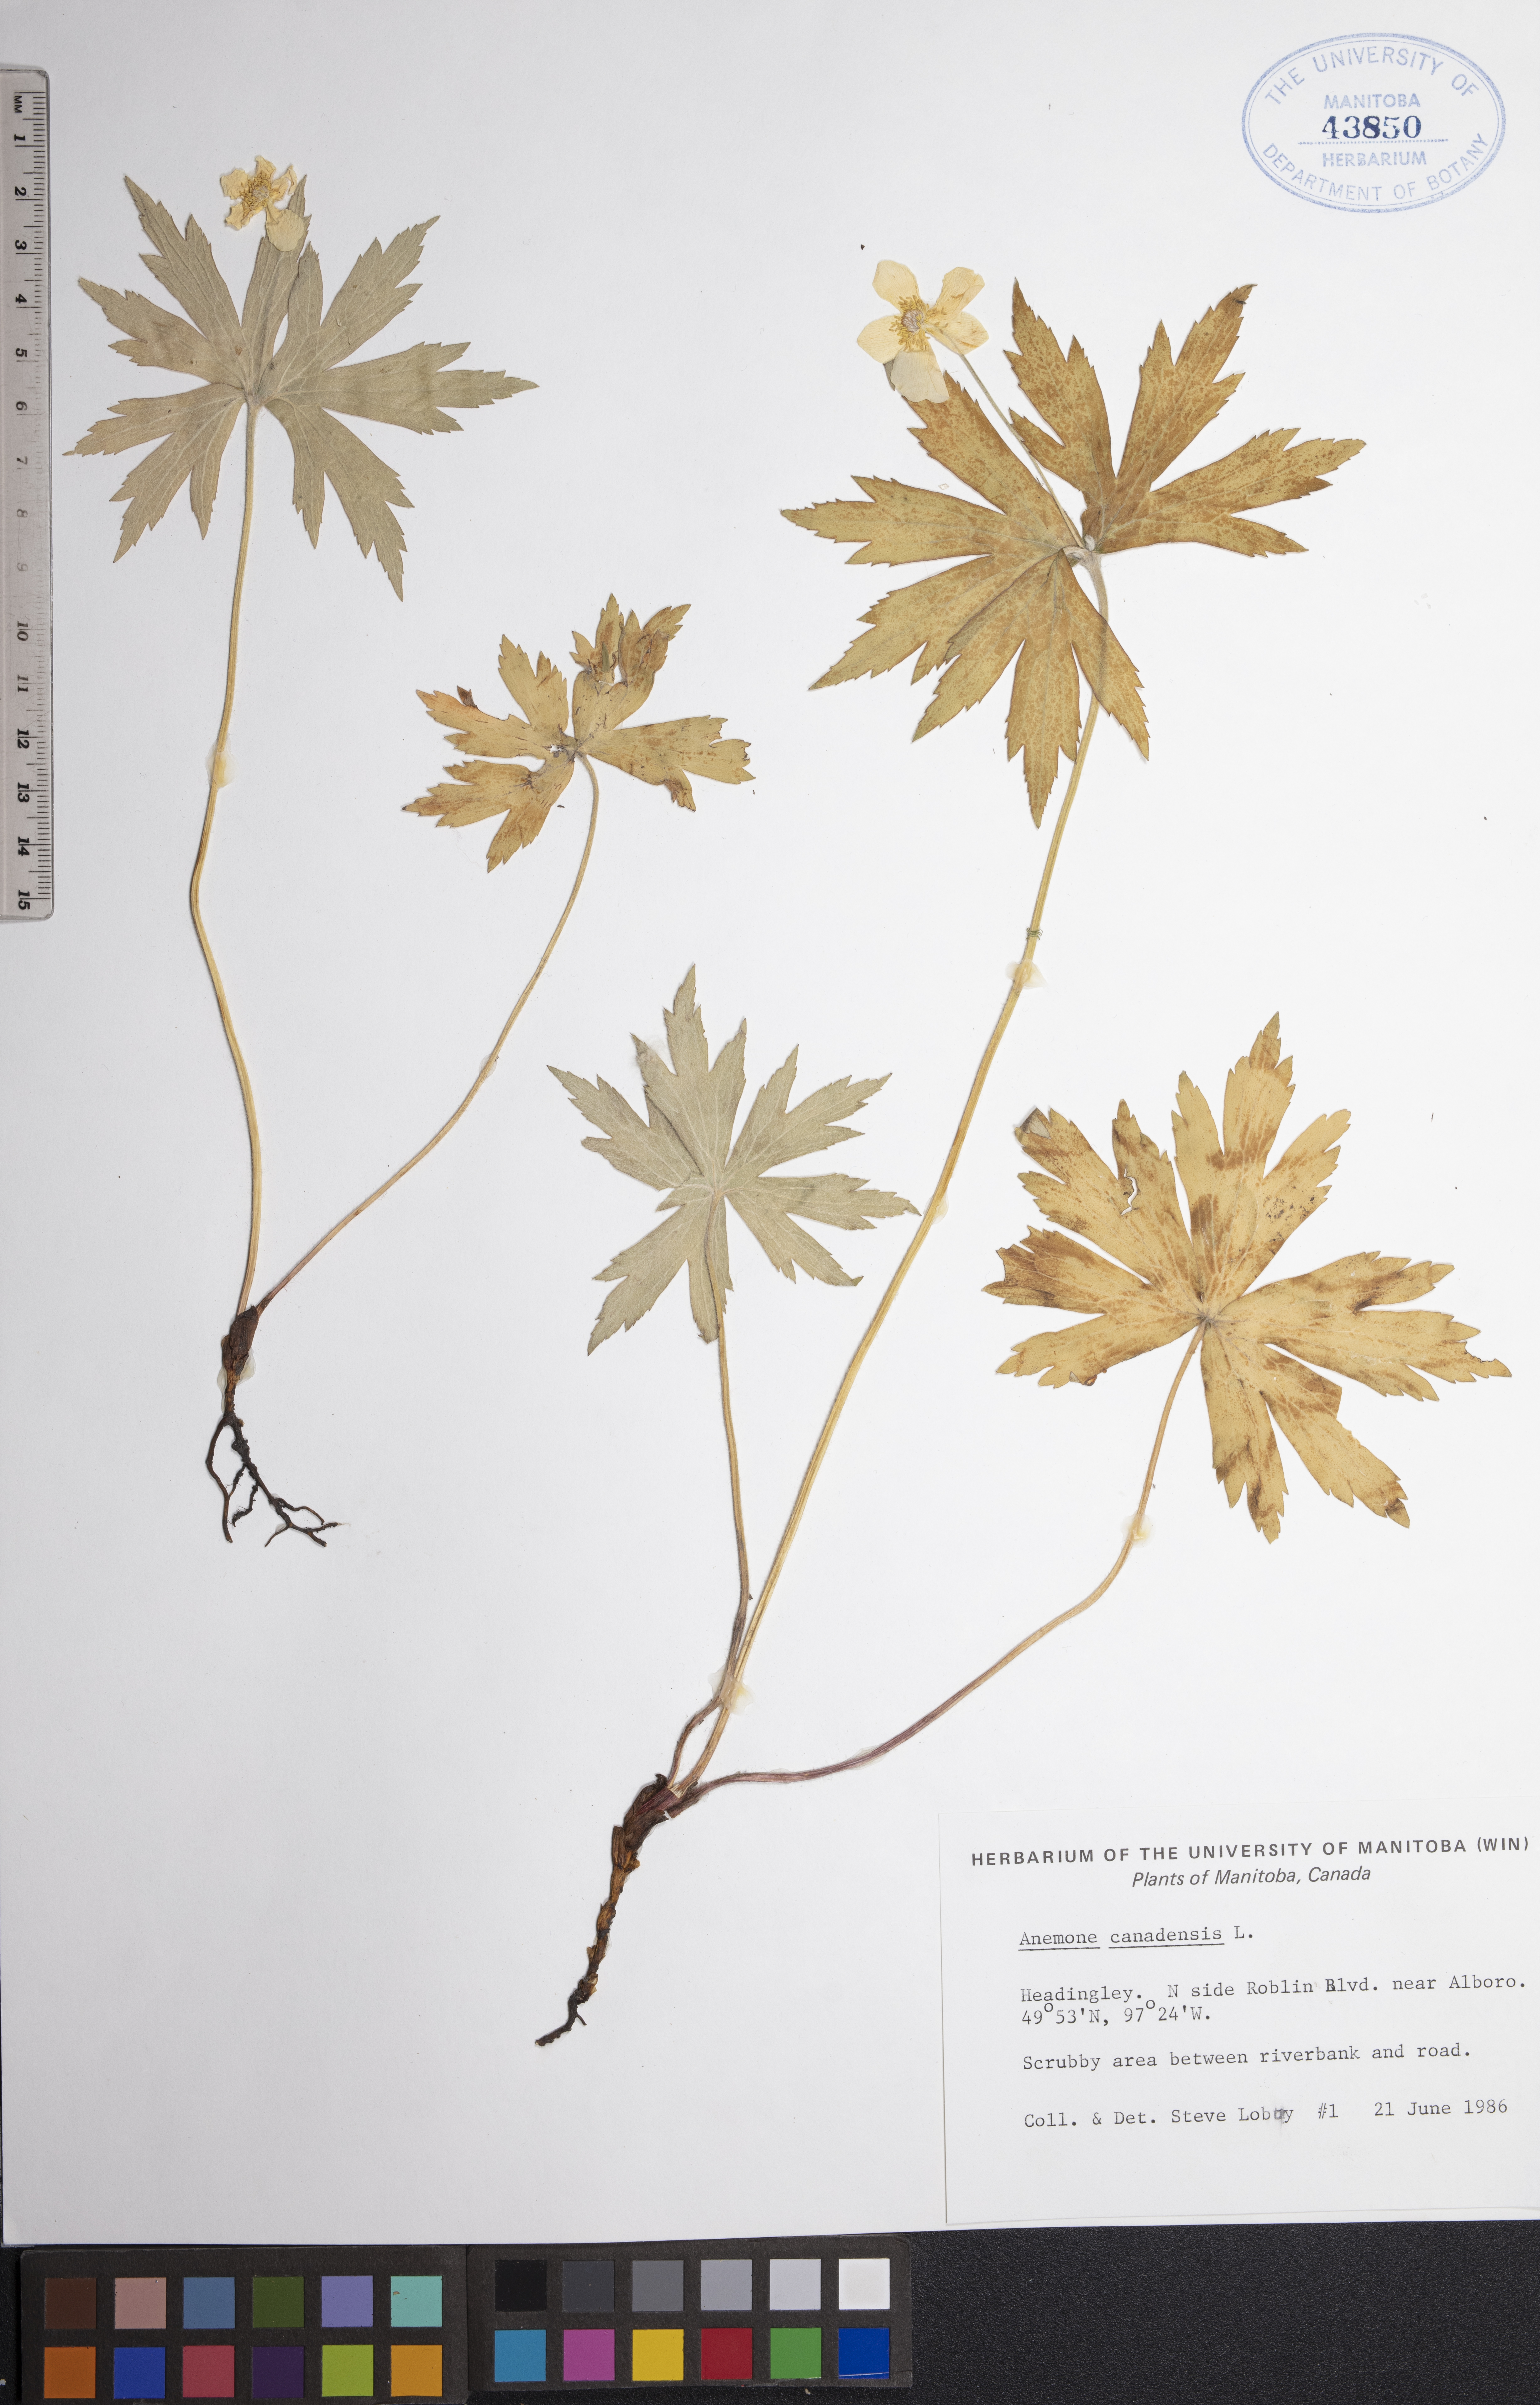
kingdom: Plantae
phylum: Tracheophyta
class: Magnoliopsida
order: Ranunculales
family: Ranunculaceae
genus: Anemonastrum
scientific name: Anemonastrum canadense
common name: Canada anemone
